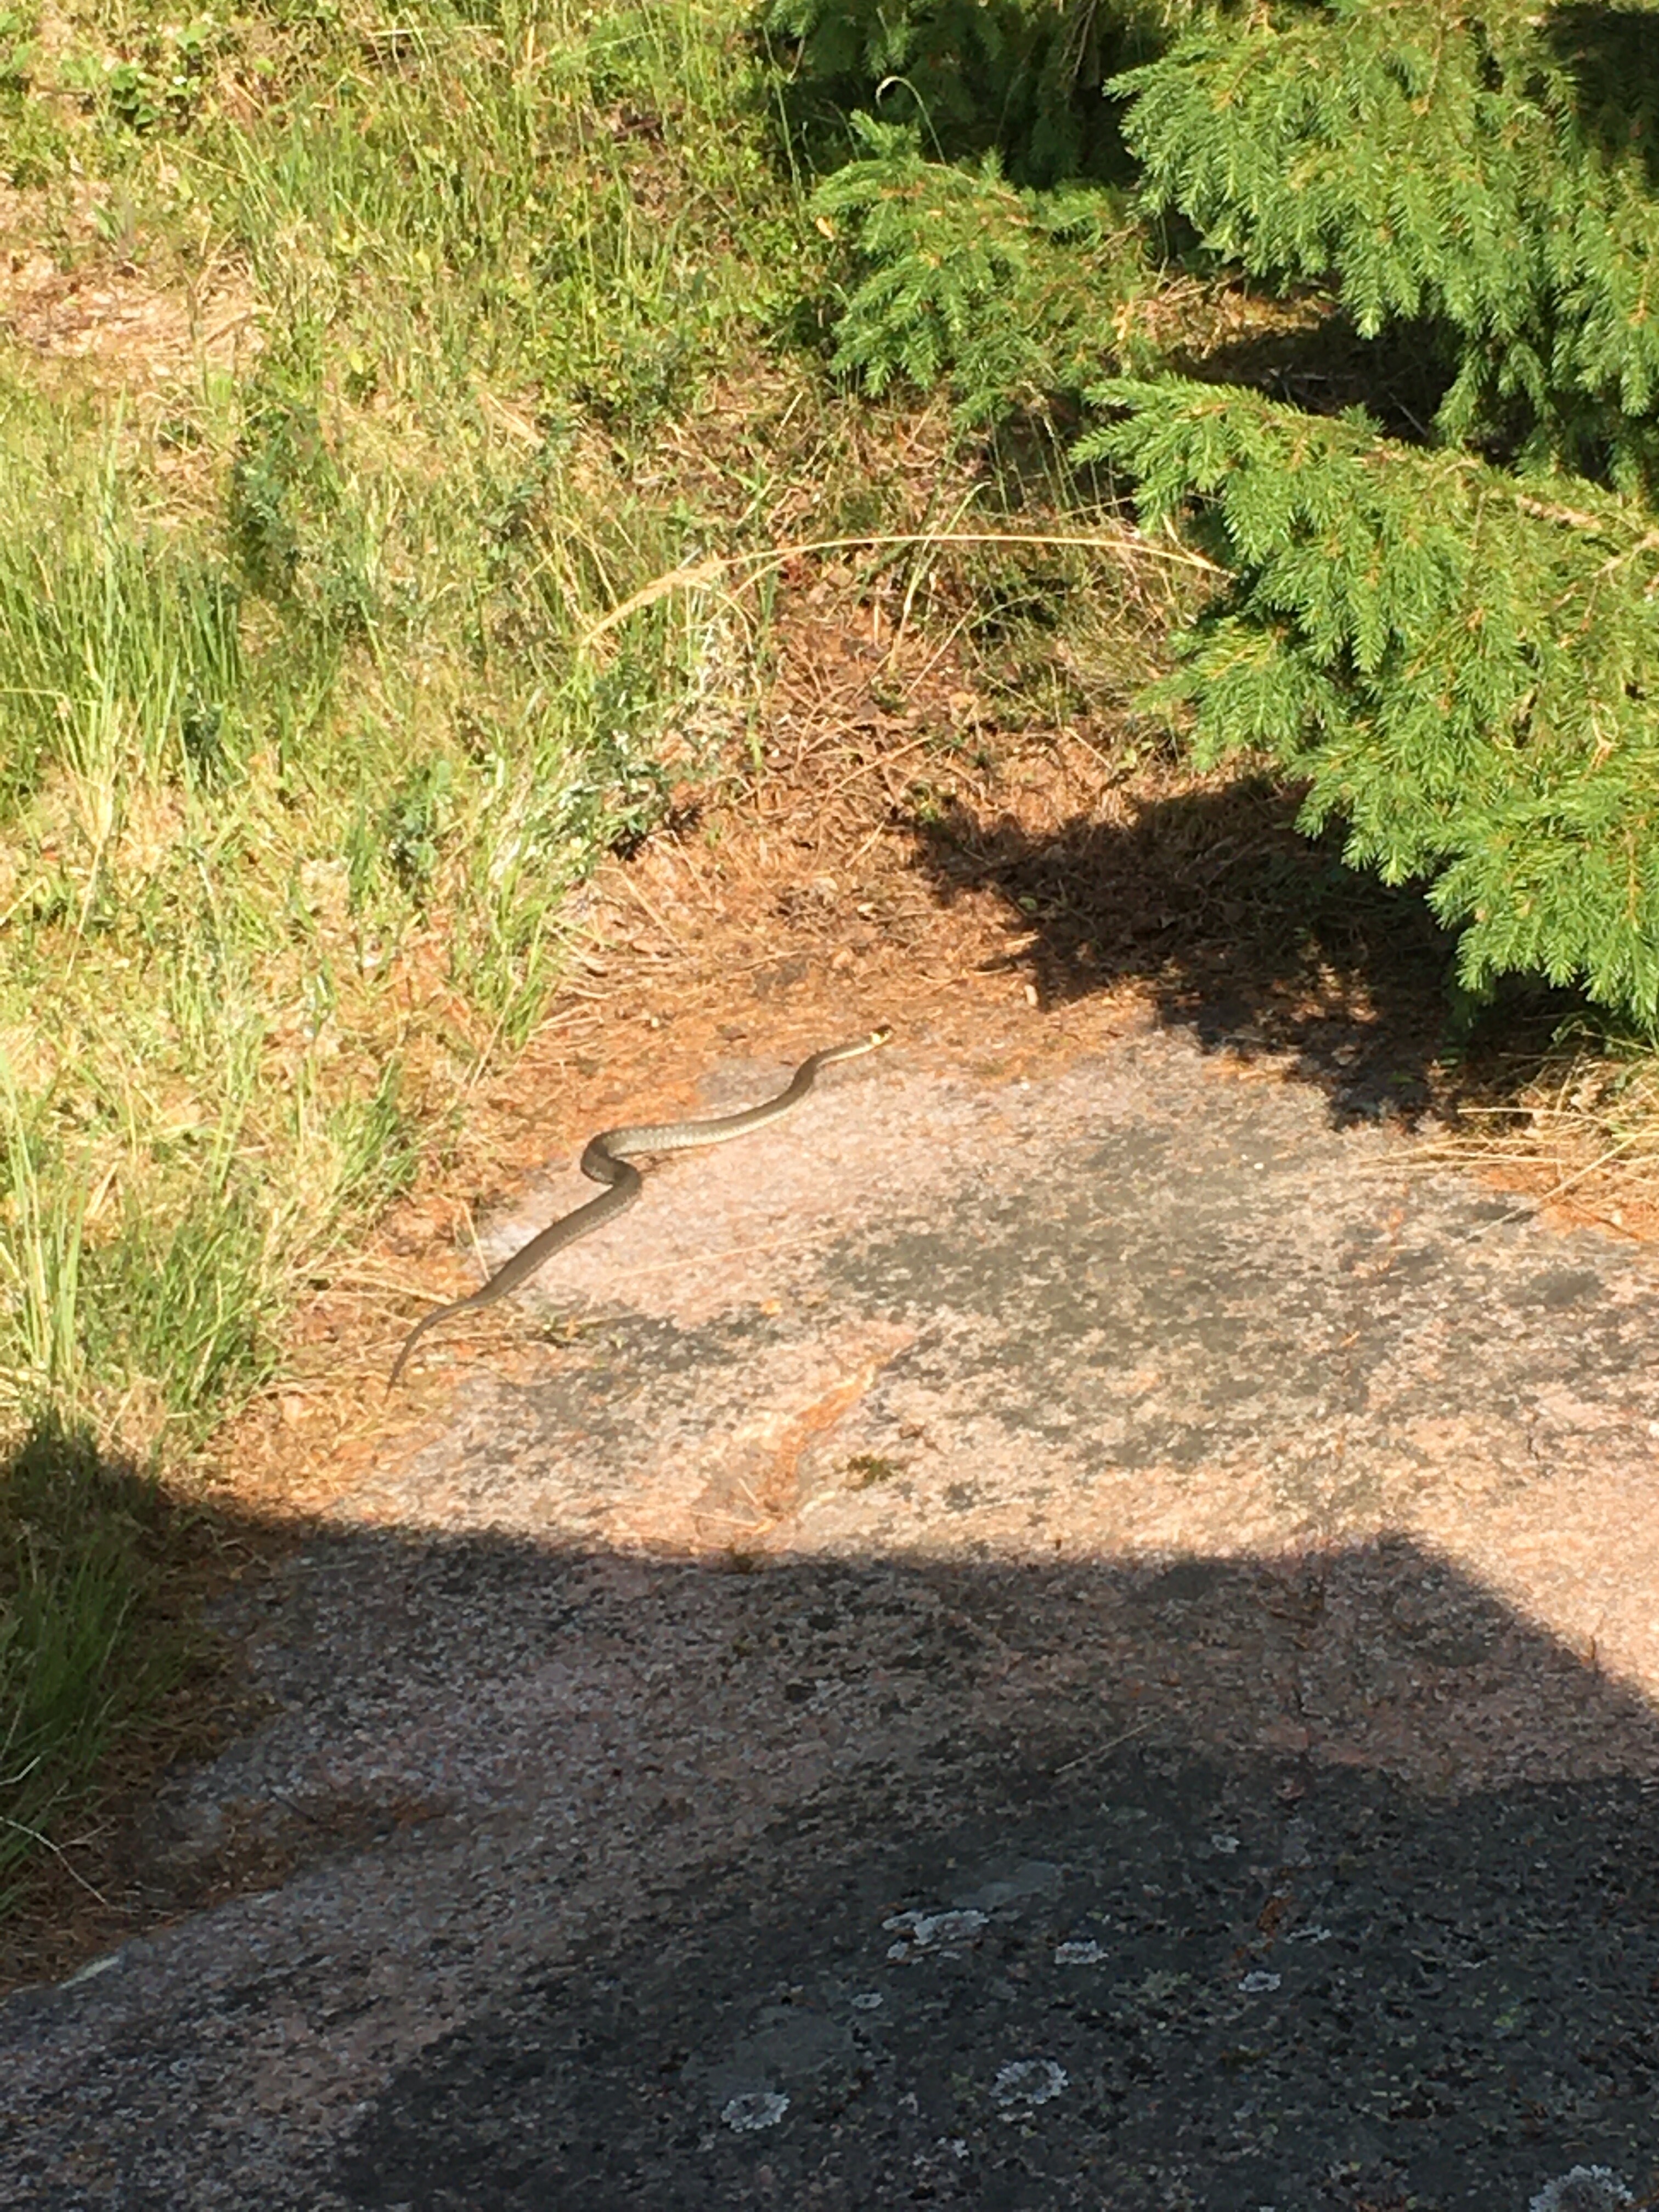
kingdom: Animalia
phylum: Chordata
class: Squamata
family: Colubridae
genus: Natrix
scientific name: Natrix natrix
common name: Grass snake
